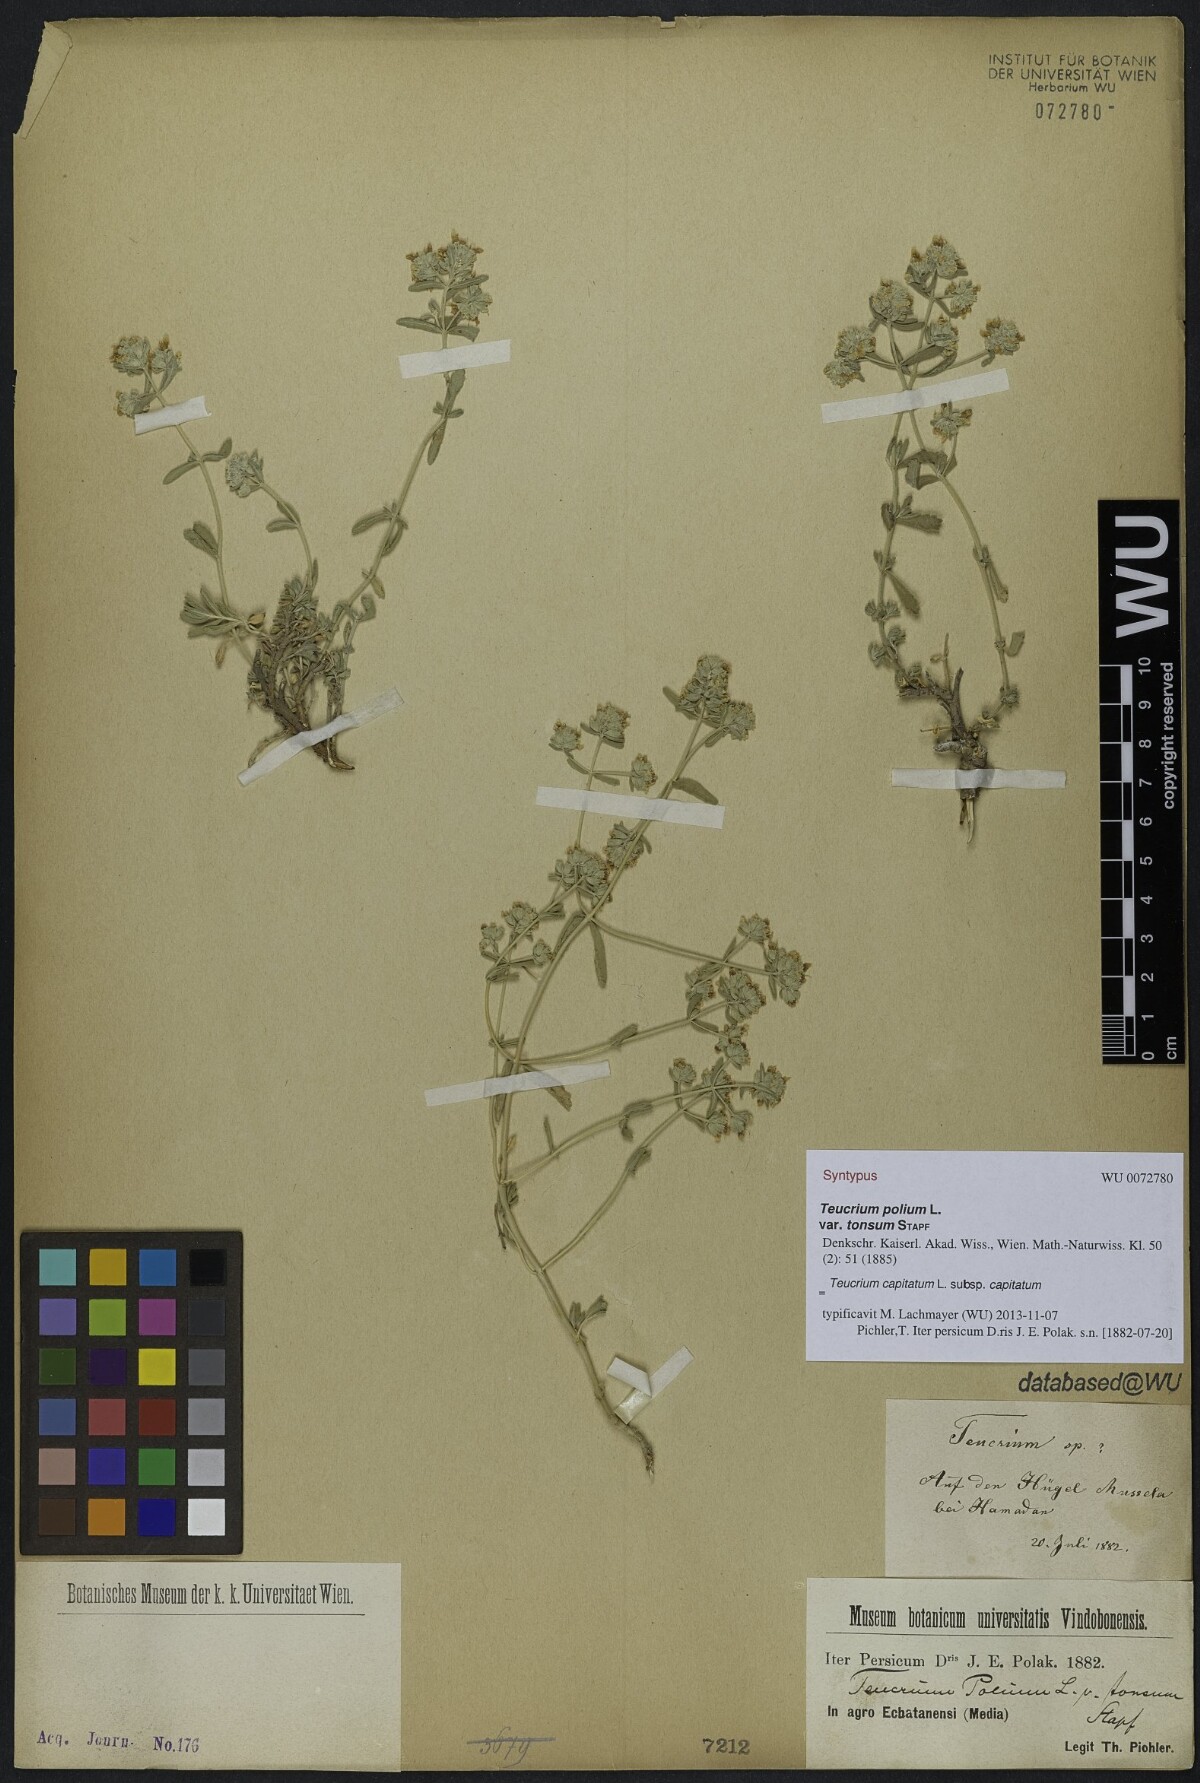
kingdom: Plantae
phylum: Tracheophyta
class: Magnoliopsida
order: Lamiales
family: Lamiaceae
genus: Teucrium
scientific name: Teucrium capitatum
